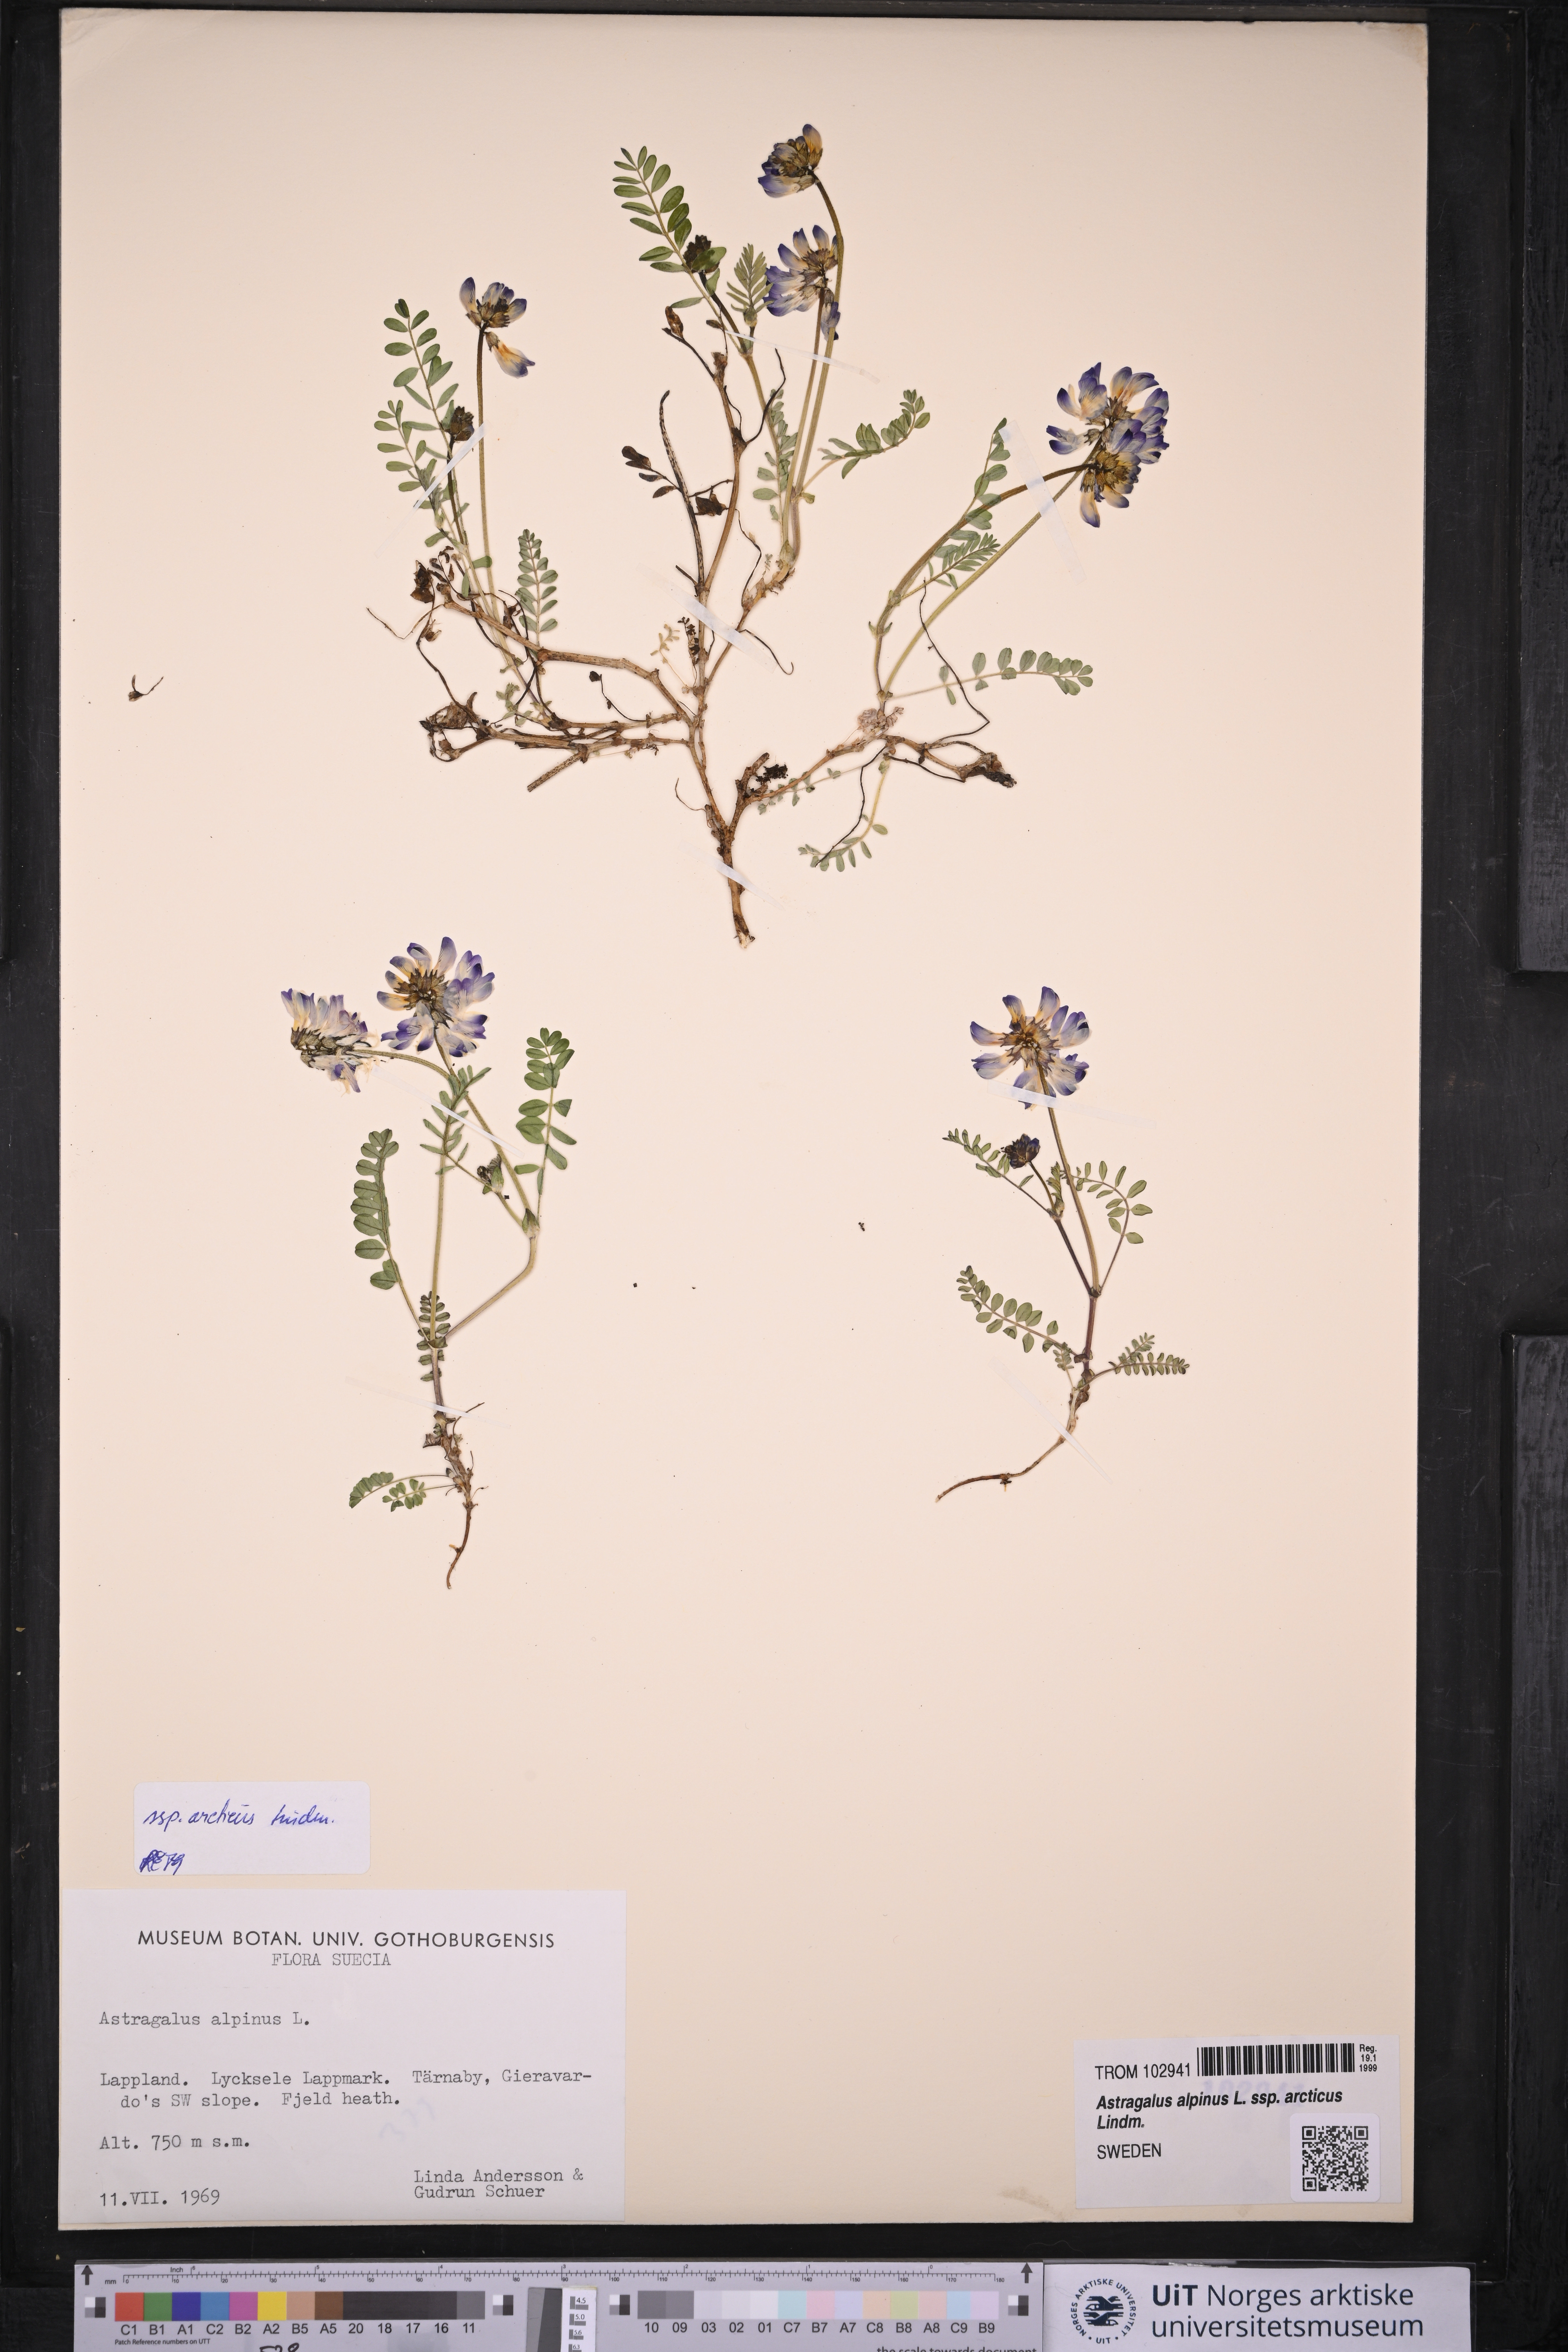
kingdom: Plantae
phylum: Tracheophyta
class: Magnoliopsida
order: Fabales
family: Fabaceae
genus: Astragalus
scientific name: Astragalus norvegicus
